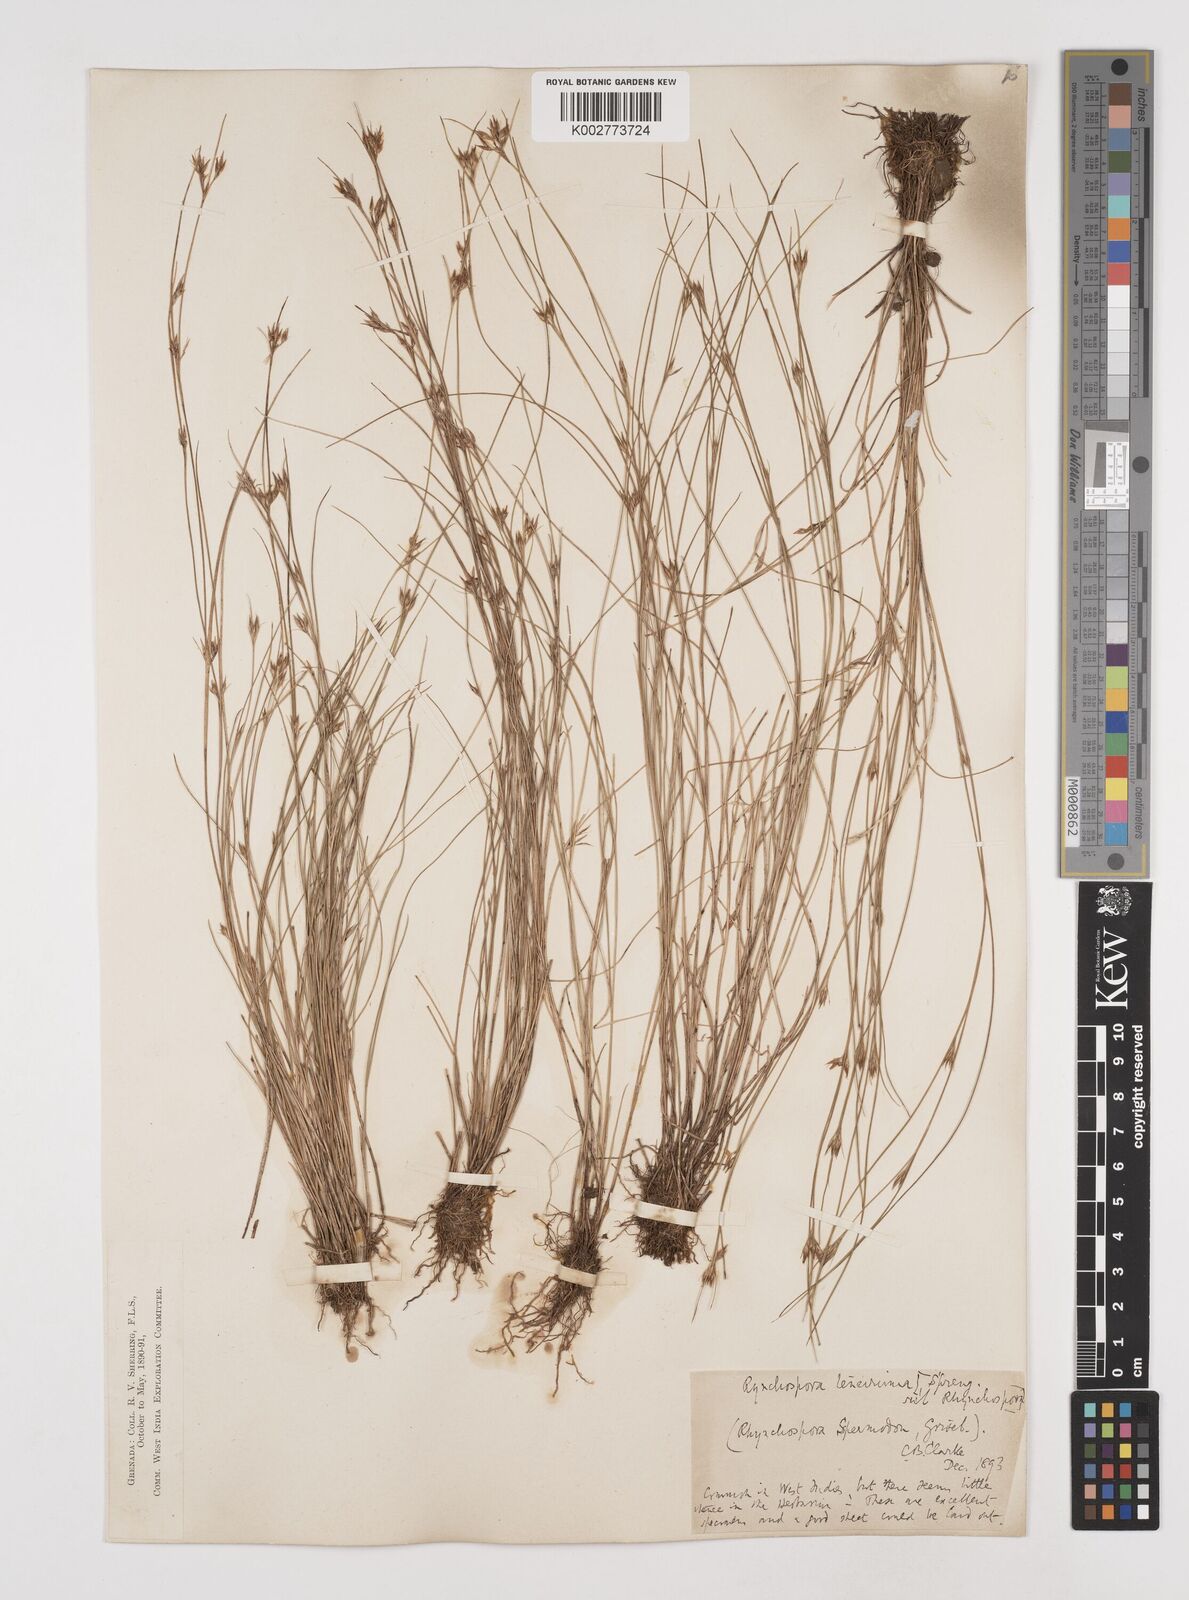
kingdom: Plantae
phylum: Tracheophyta
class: Liliopsida
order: Poales
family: Cyperaceae
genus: Rhynchospora
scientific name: Rhynchospora tenuis
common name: Quill beaksedge
